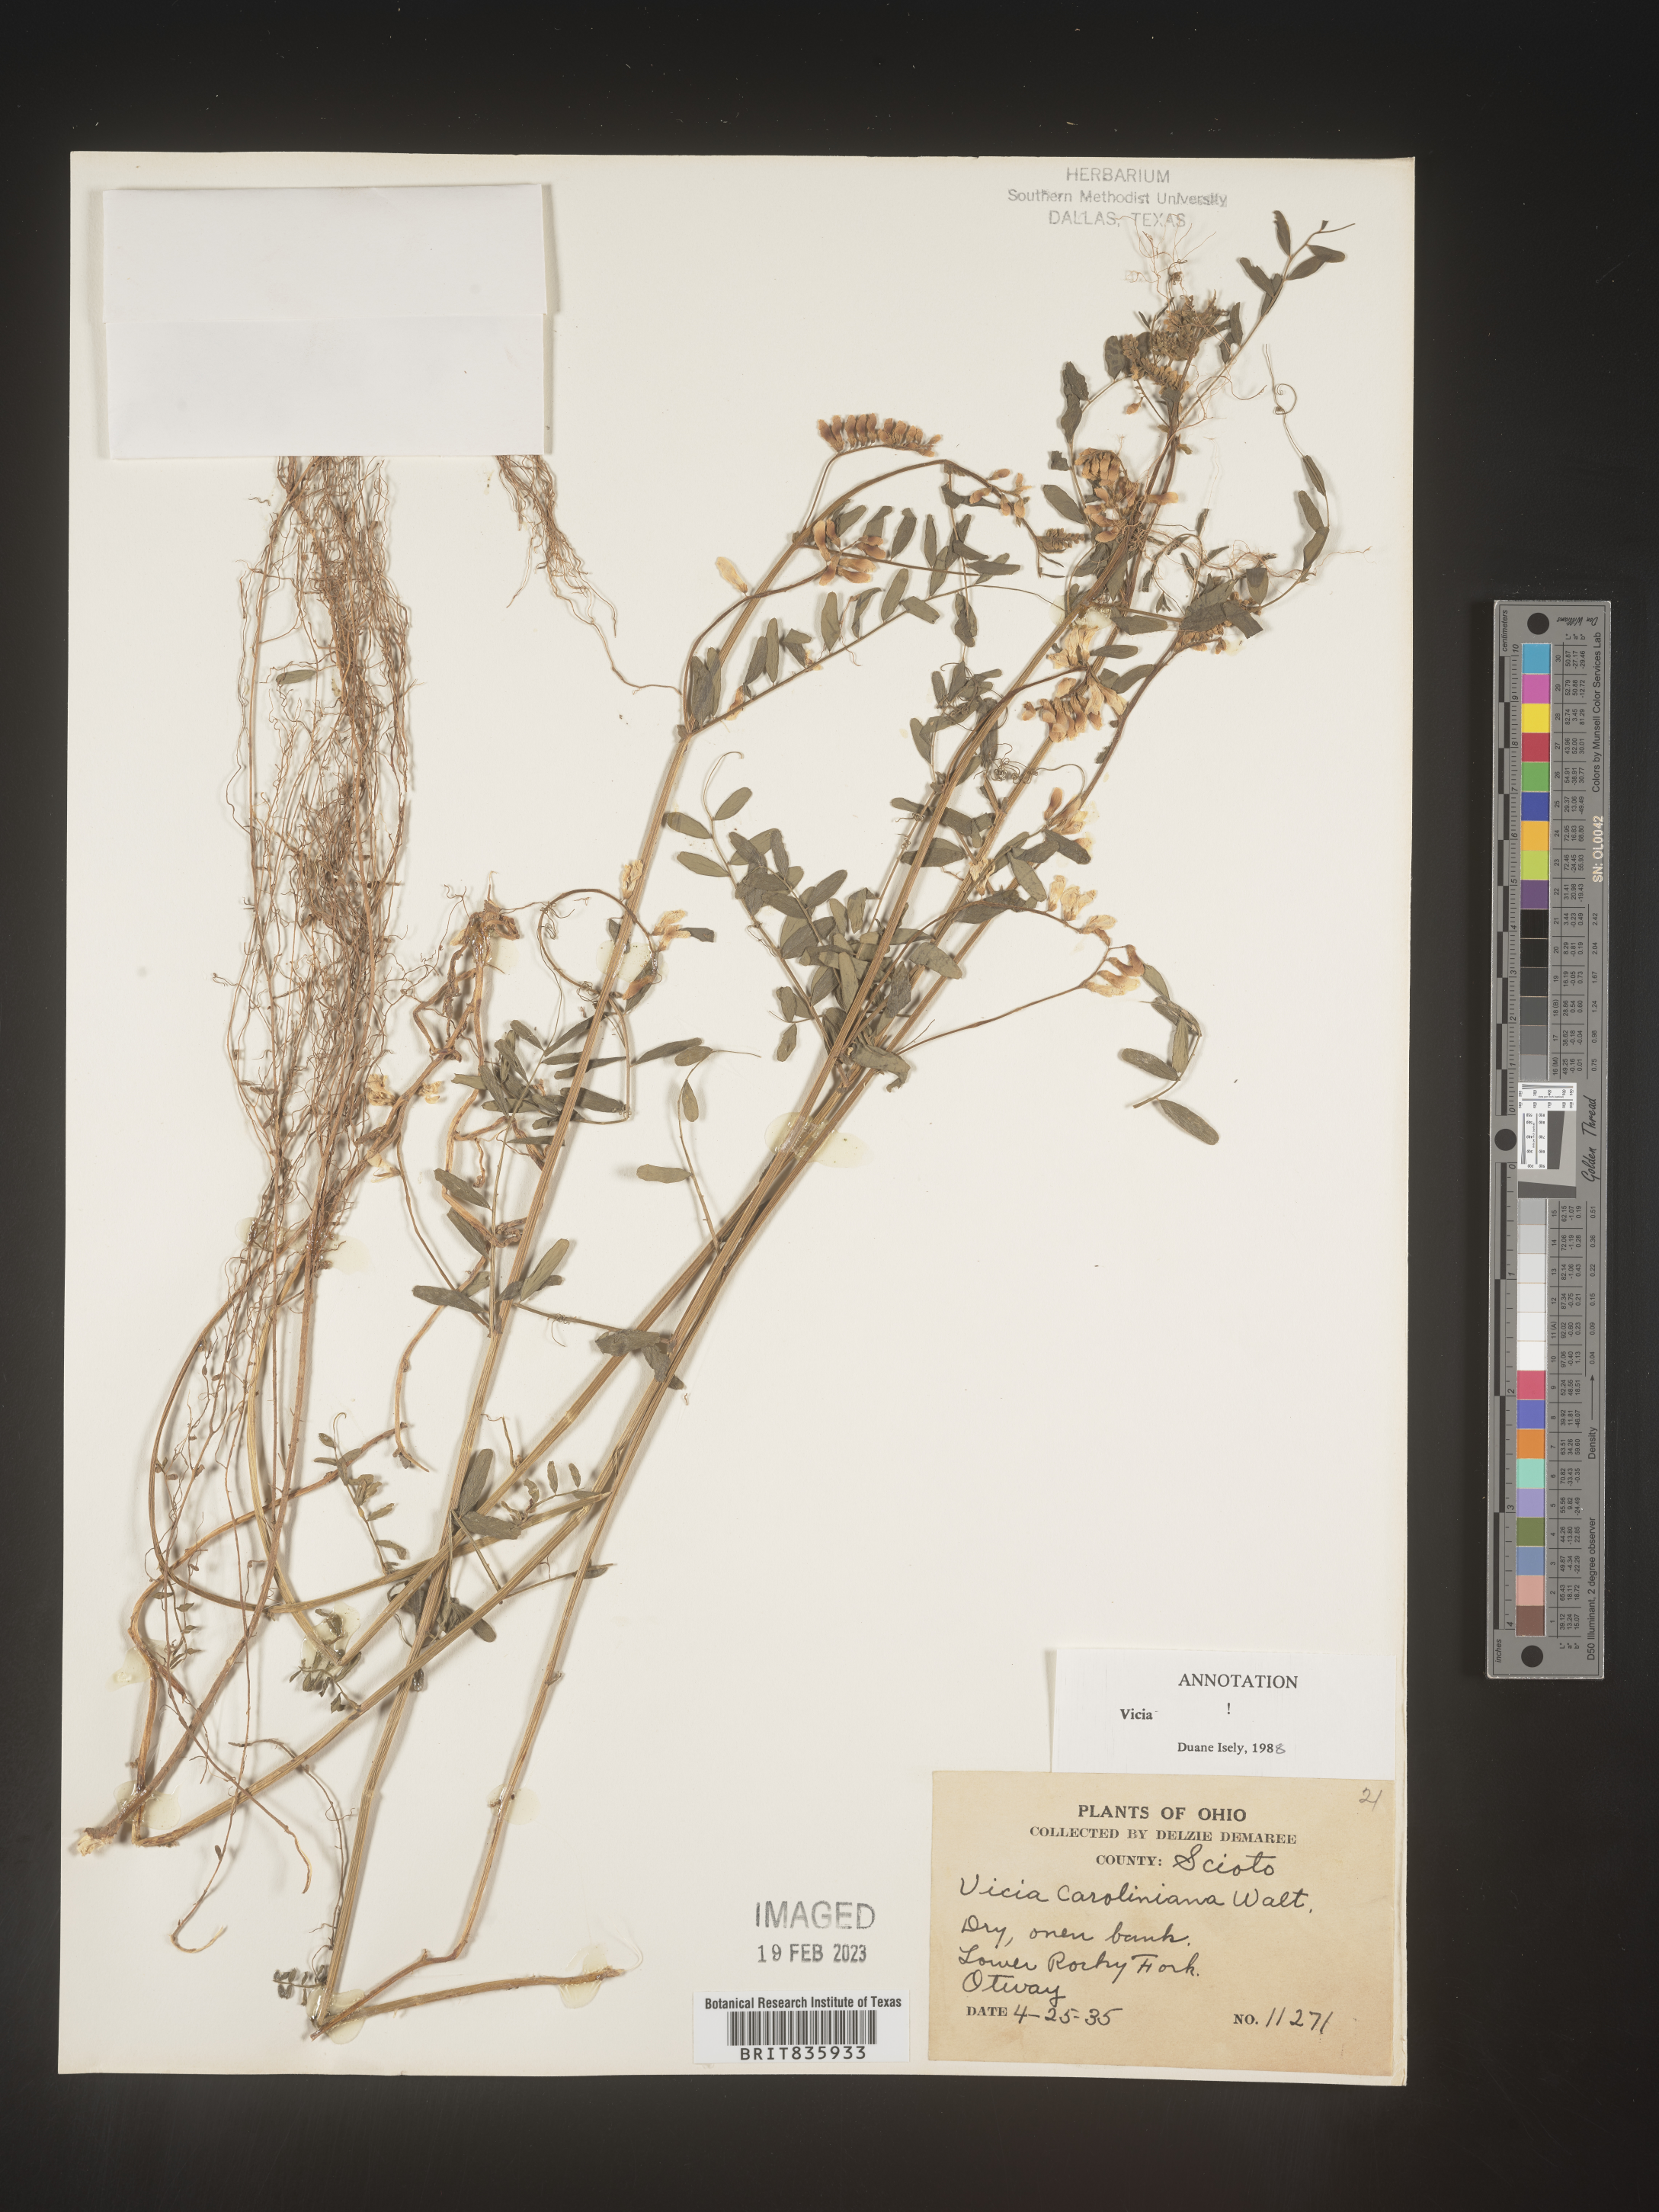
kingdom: Plantae
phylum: Tracheophyta
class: Magnoliopsida
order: Fabales
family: Fabaceae
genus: Vicia
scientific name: Vicia caroliniana
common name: Carolina vetch
